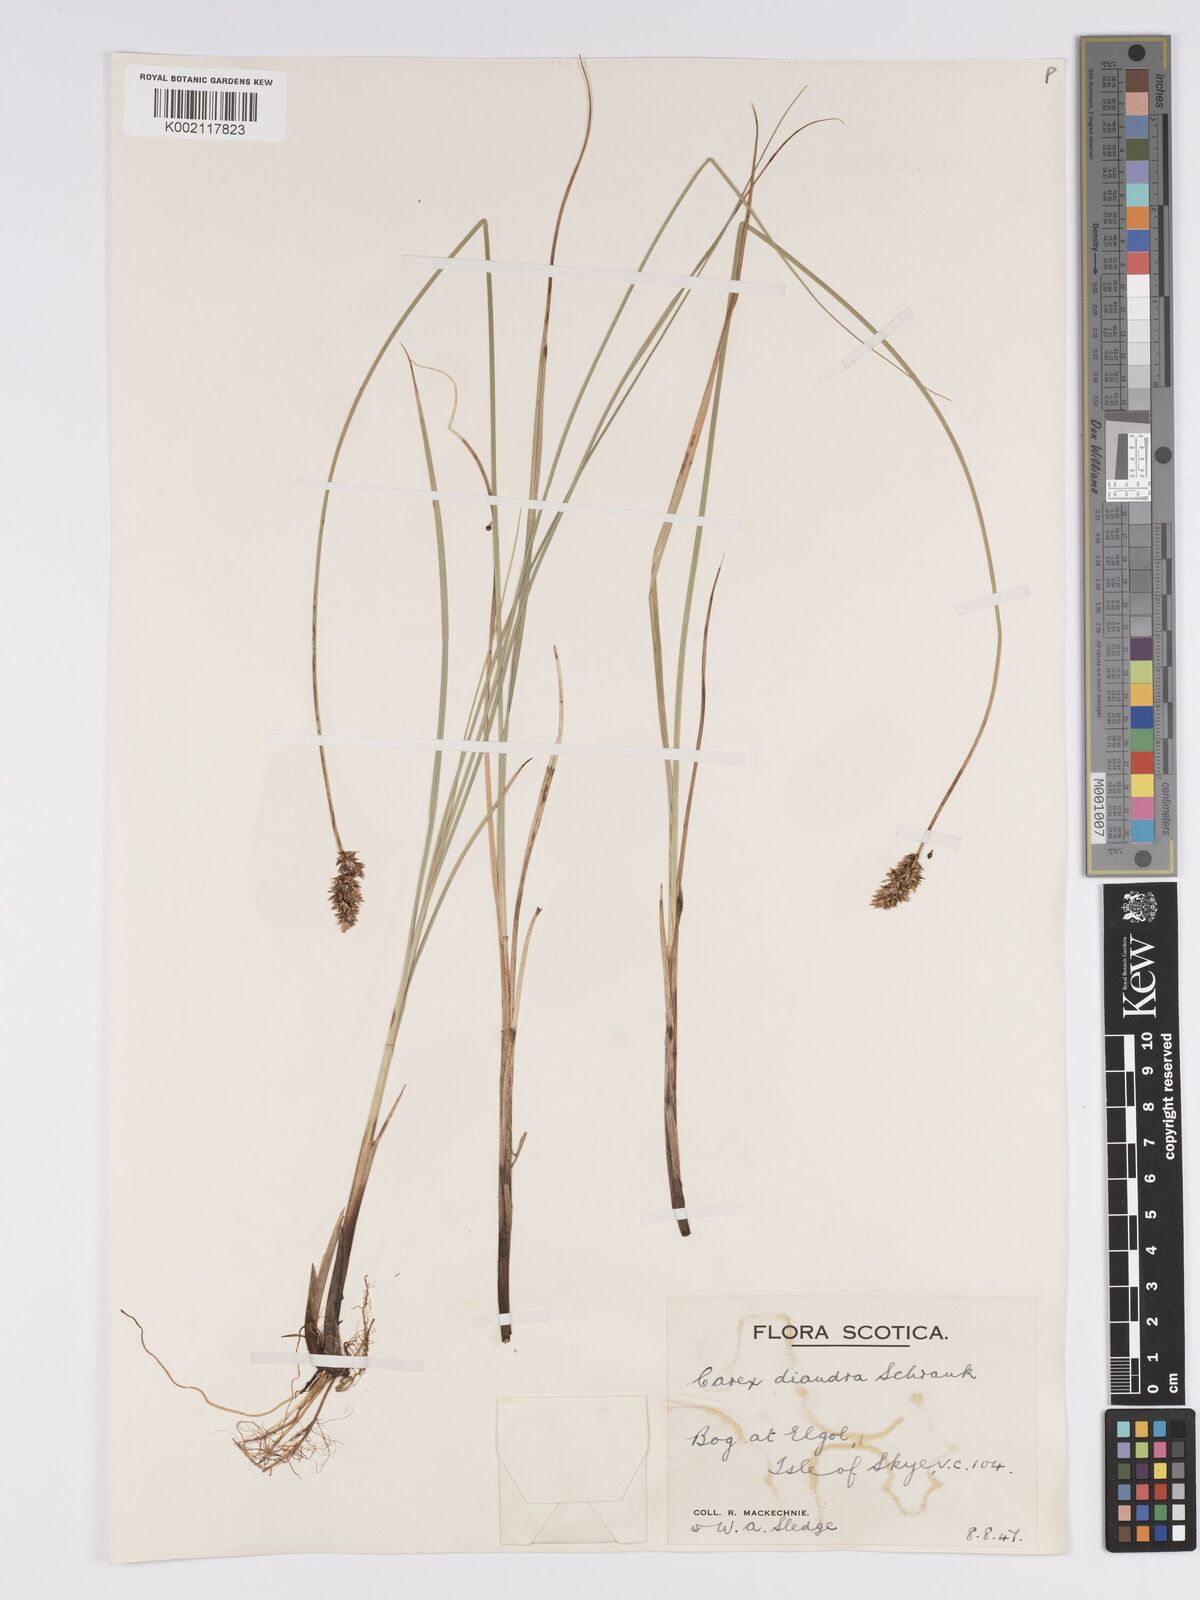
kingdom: Plantae
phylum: Tracheophyta
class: Liliopsida
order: Poales
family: Cyperaceae
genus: Carex
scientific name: Carex diandra
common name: Lesser tussock-sedge
